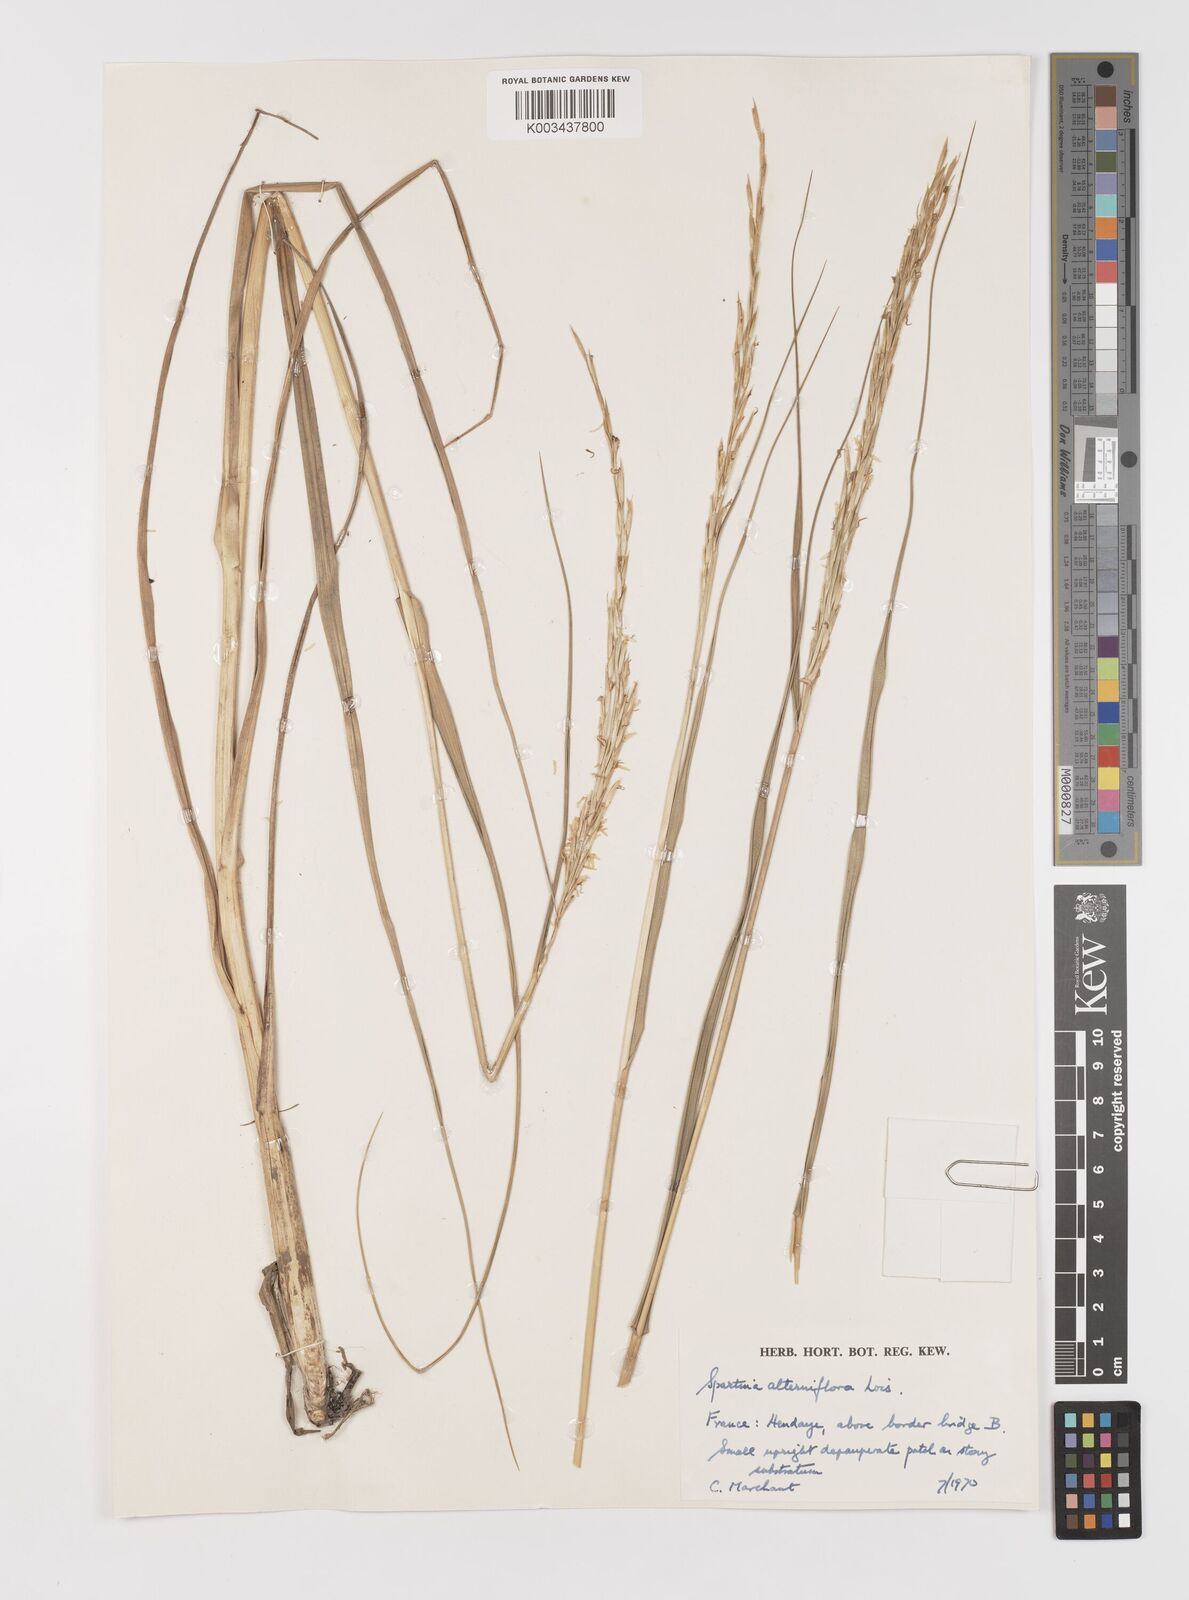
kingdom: Plantae
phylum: Tracheophyta
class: Liliopsida
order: Poales
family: Poaceae
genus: Sporobolus
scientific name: Sporobolus alterniflorus
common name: Atlantic cordgrass
